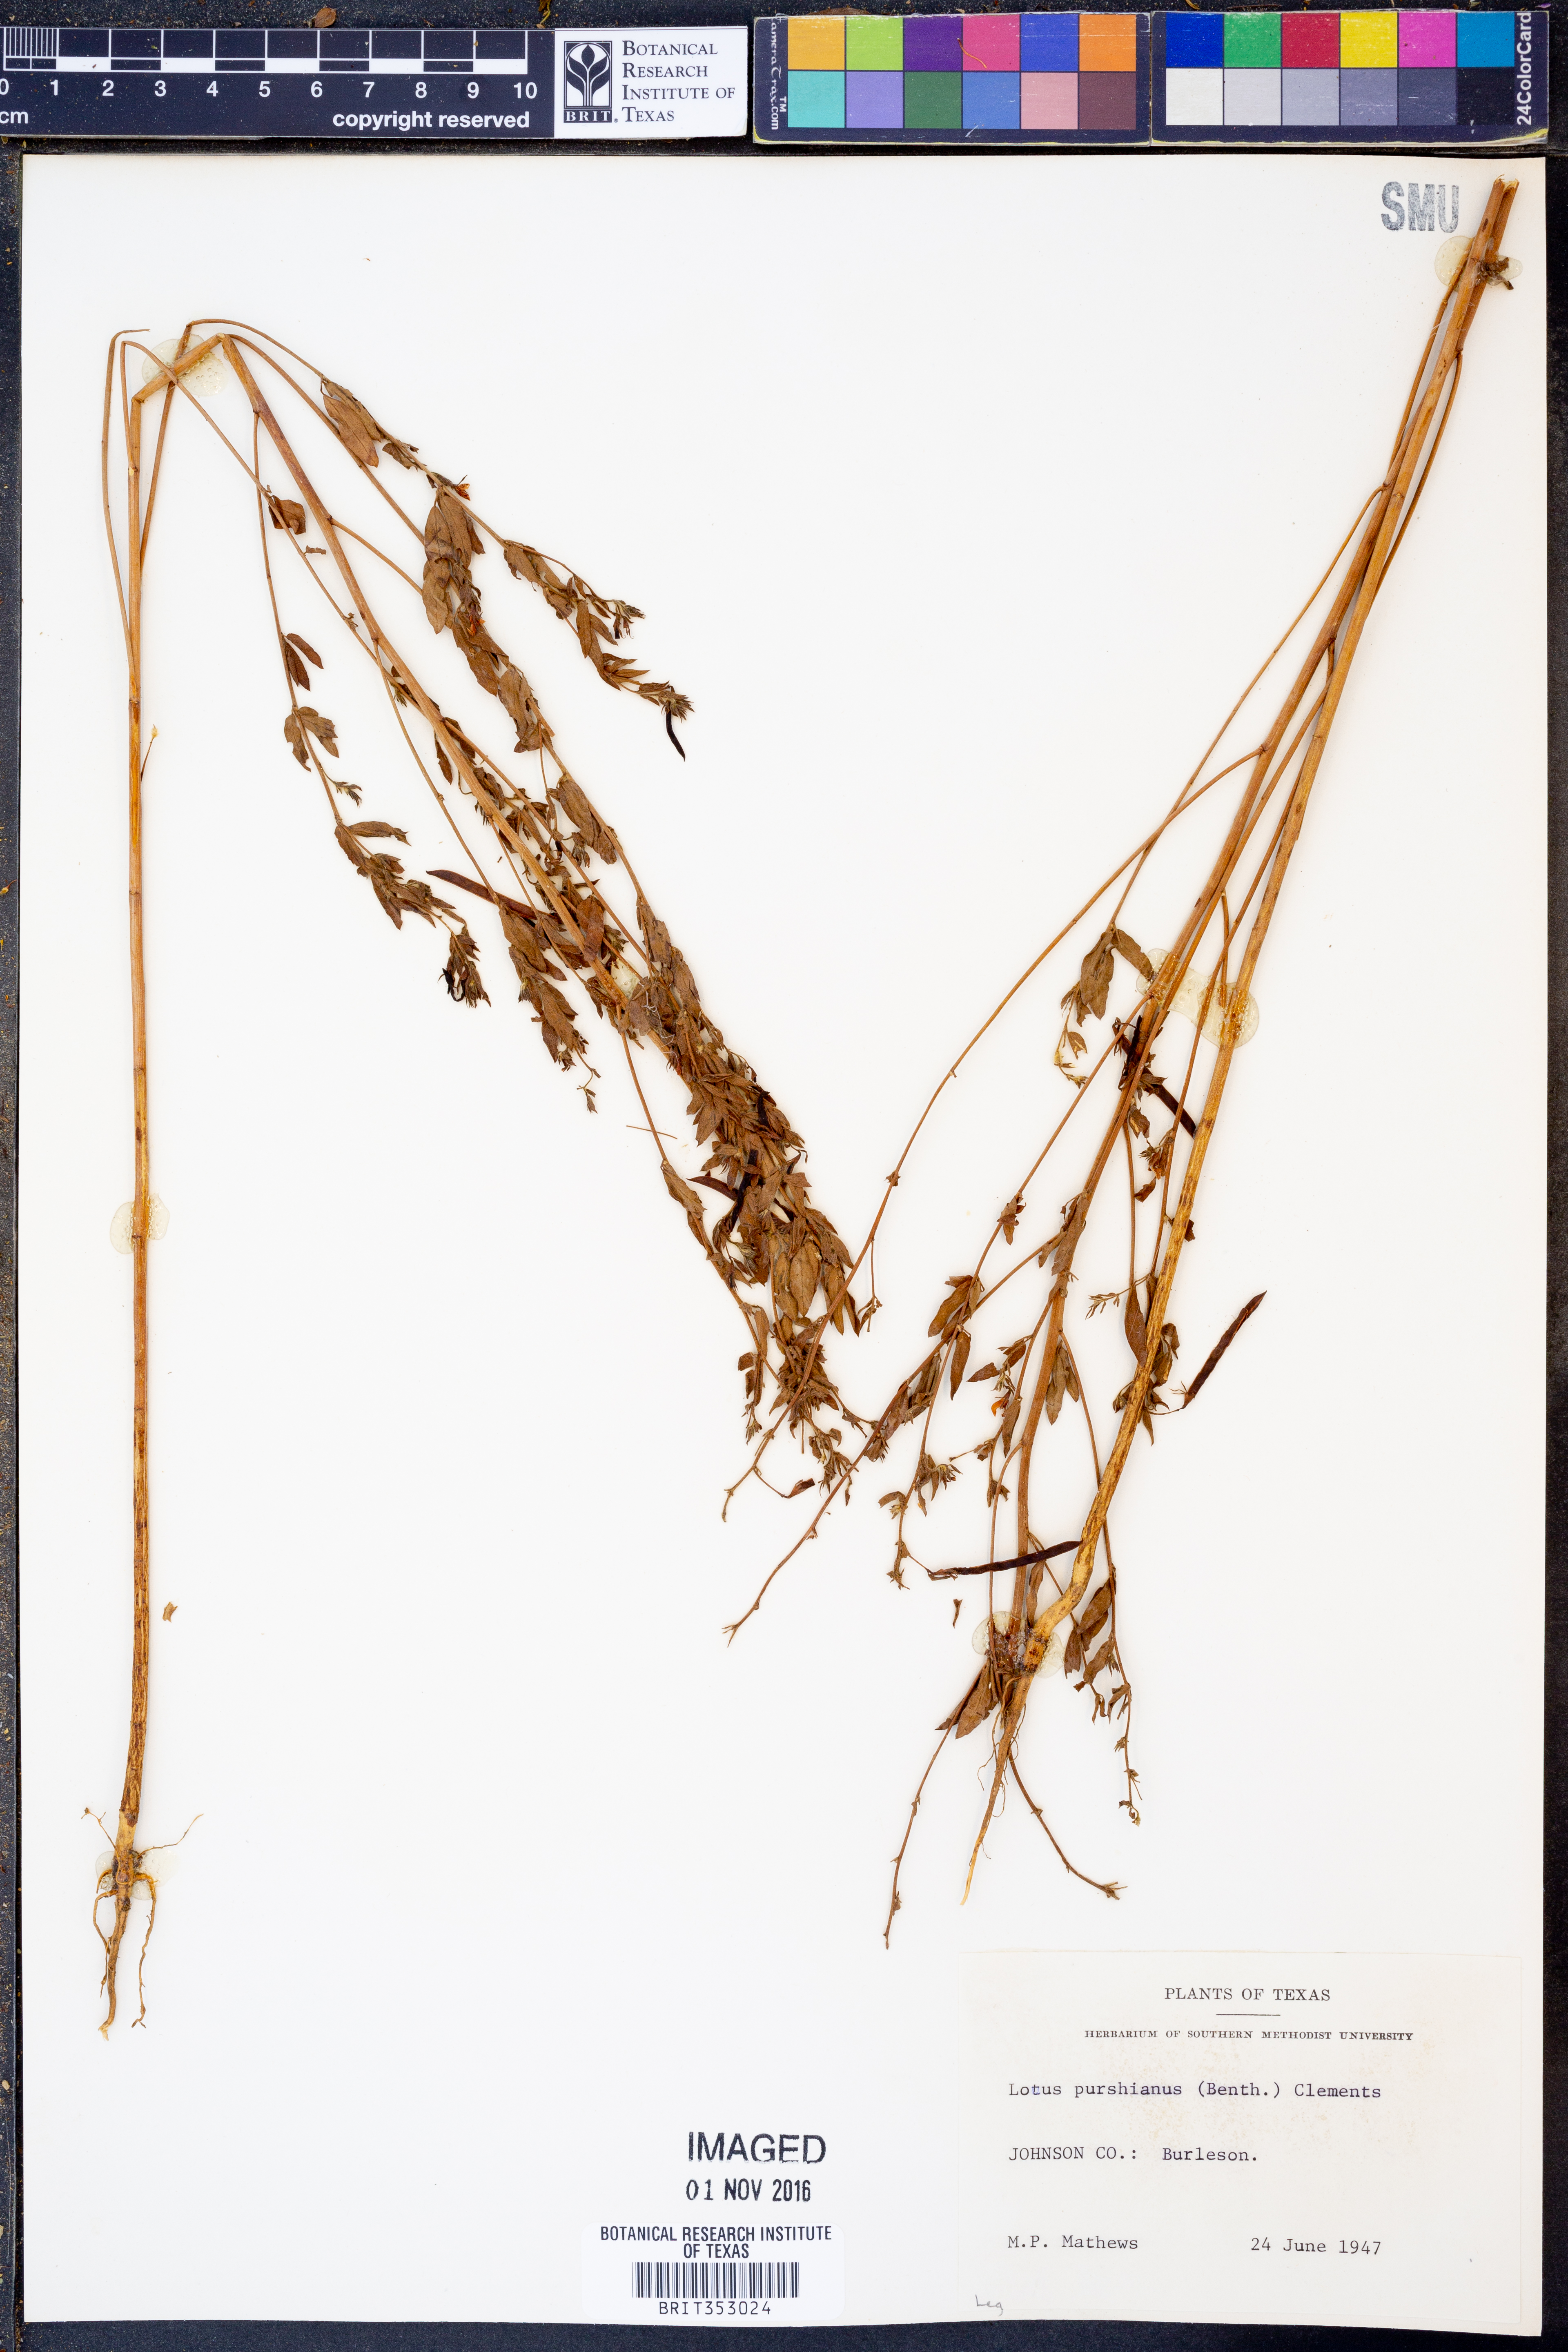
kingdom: Plantae
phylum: Tracheophyta
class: Magnoliopsida
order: Fabales
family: Fabaceae
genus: Acmispon
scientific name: Acmispon americanus
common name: American bird's-foot trefoil
